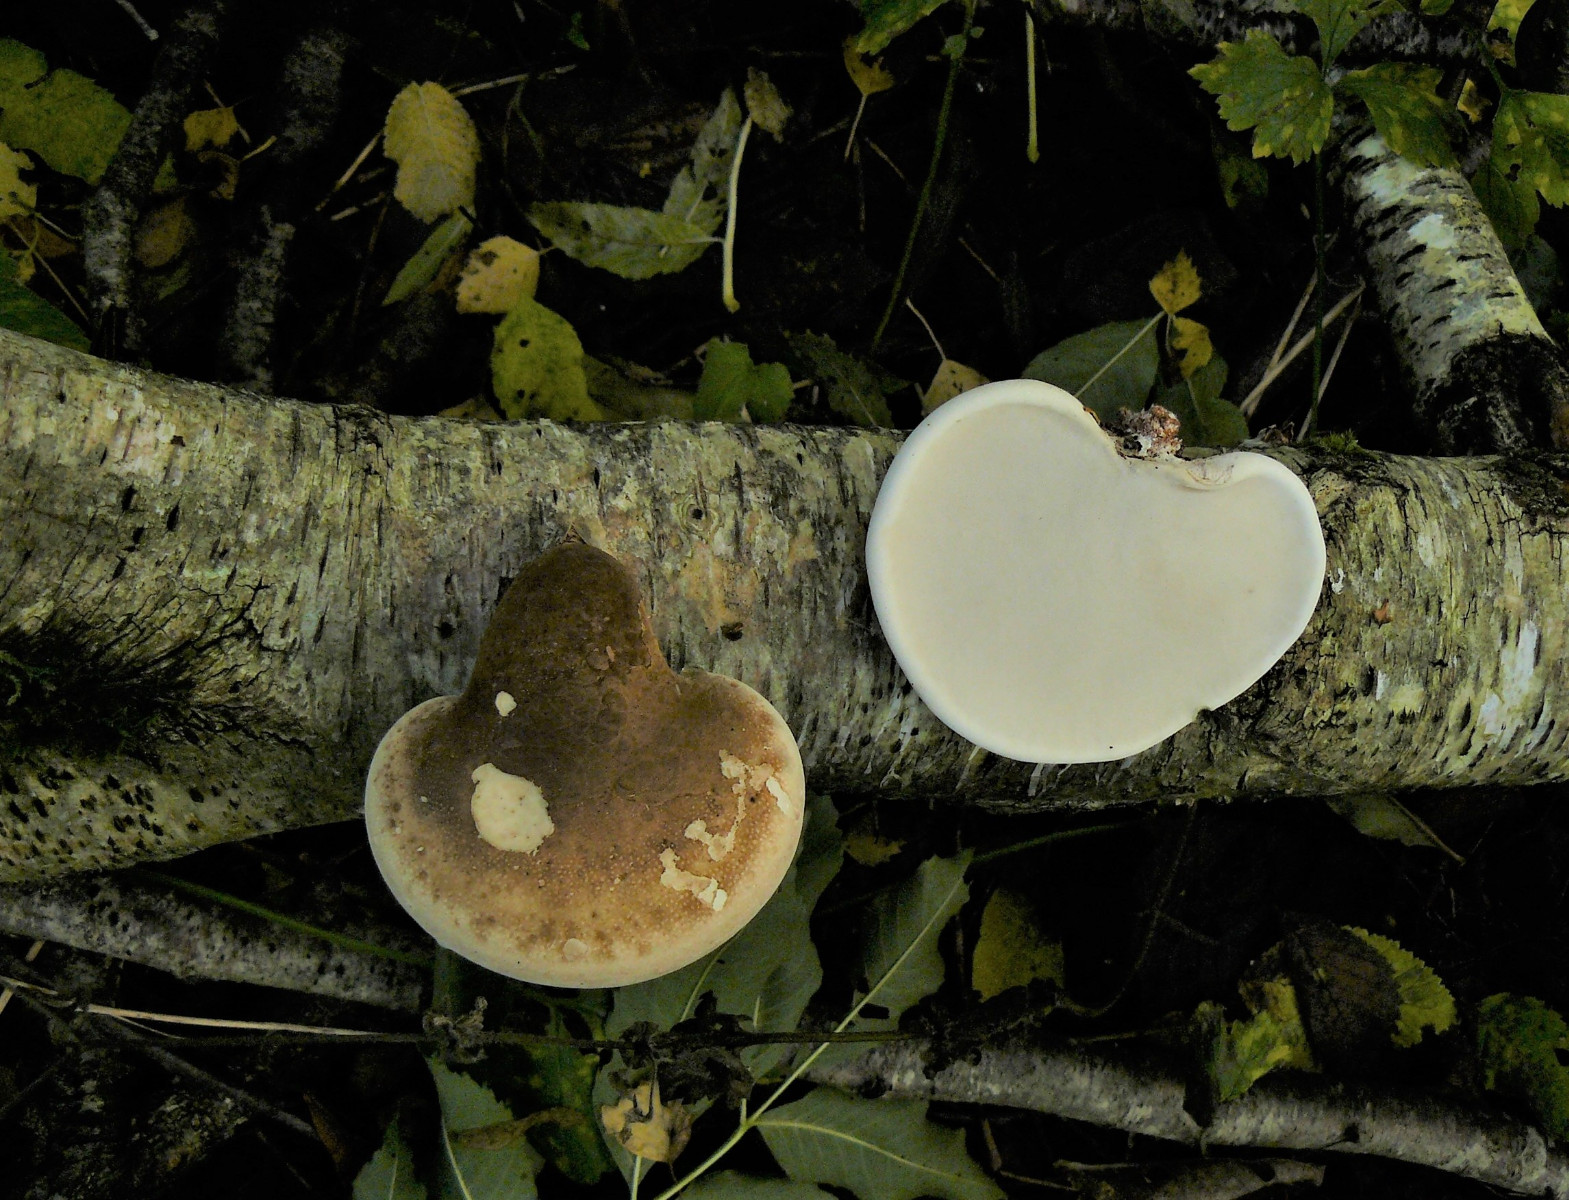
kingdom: Fungi
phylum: Basidiomycota
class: Agaricomycetes
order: Polyporales
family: Fomitopsidaceae
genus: Fomitopsis
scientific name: Fomitopsis betulina
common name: birkeporesvamp
